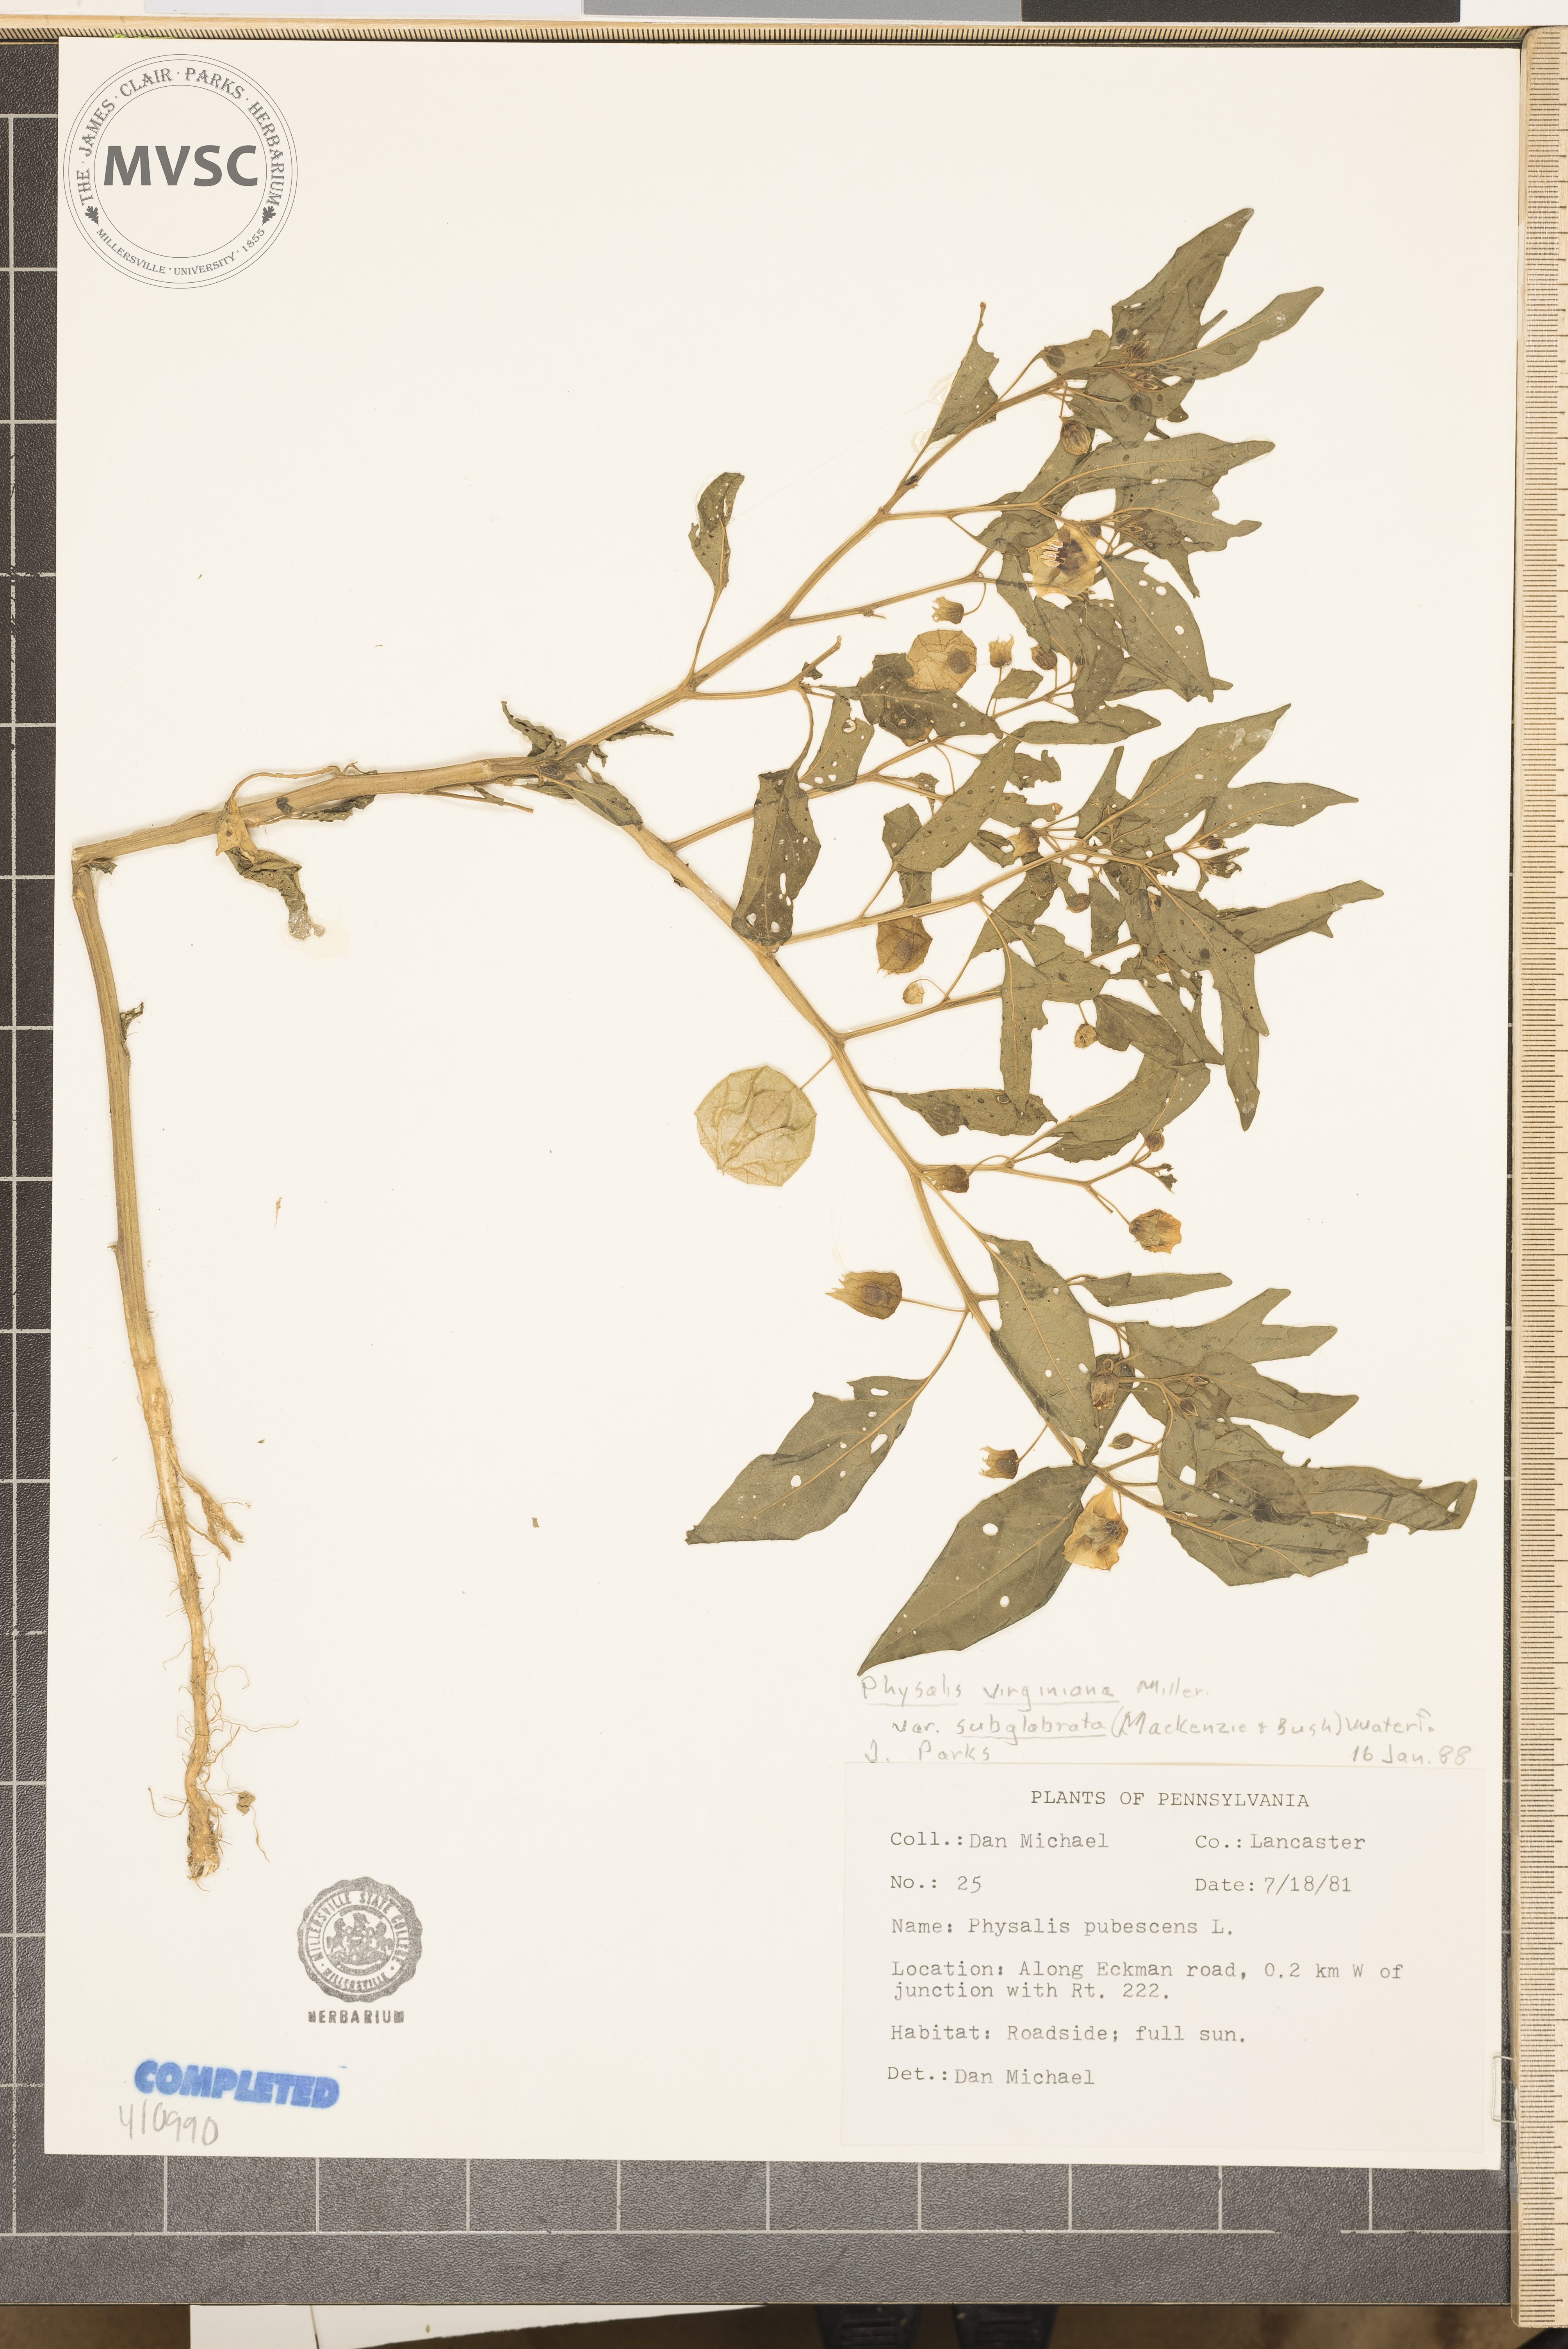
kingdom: Plantae
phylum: Tracheophyta
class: Magnoliopsida
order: Solanales
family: Solanaceae
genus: Physalis
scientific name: Physalis virginiana
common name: Virginia ground-cherry
